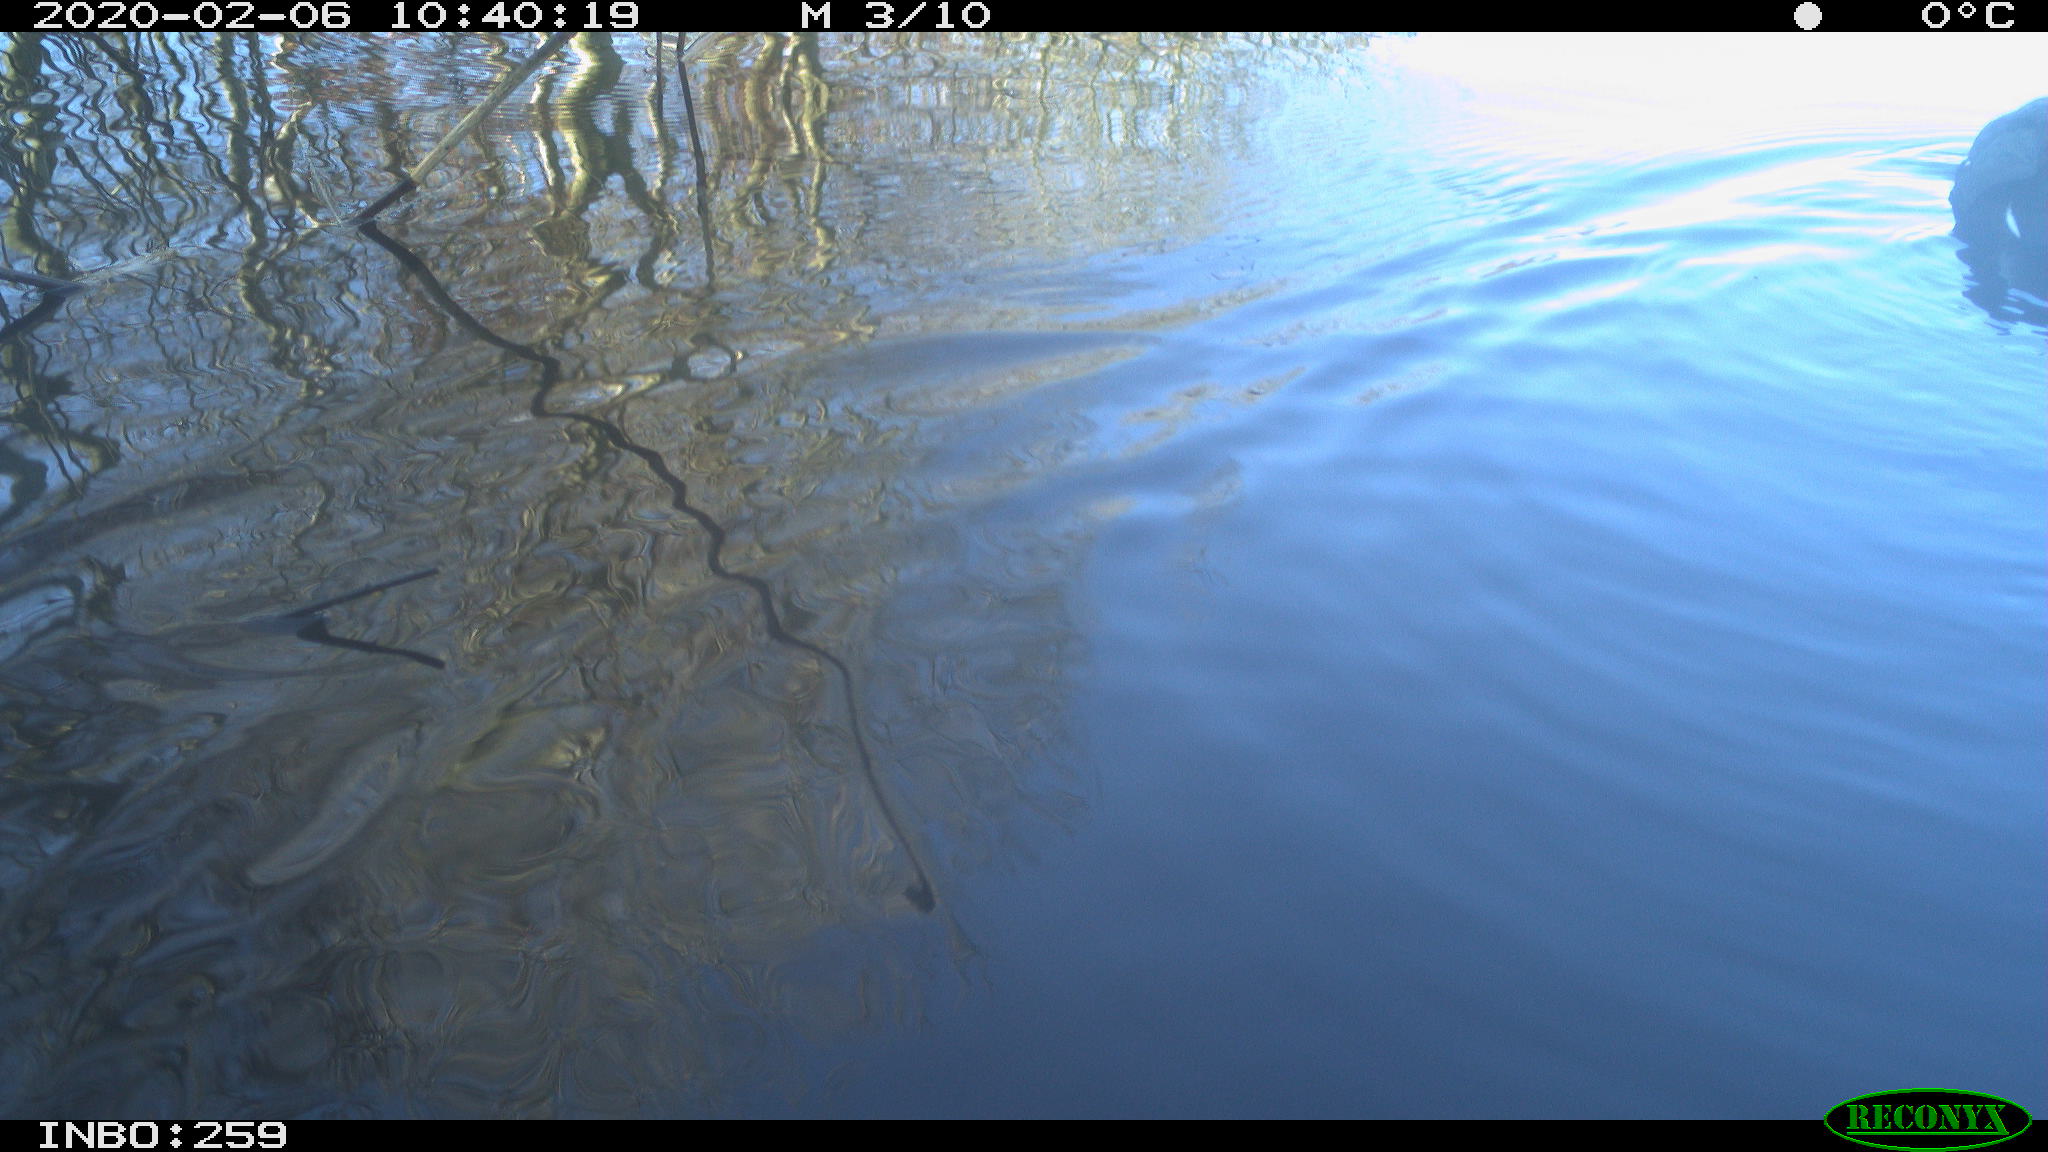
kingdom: Animalia
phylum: Chordata
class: Aves
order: Gruiformes
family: Rallidae
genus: Gallinula
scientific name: Gallinula chloropus
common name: Common moorhen
